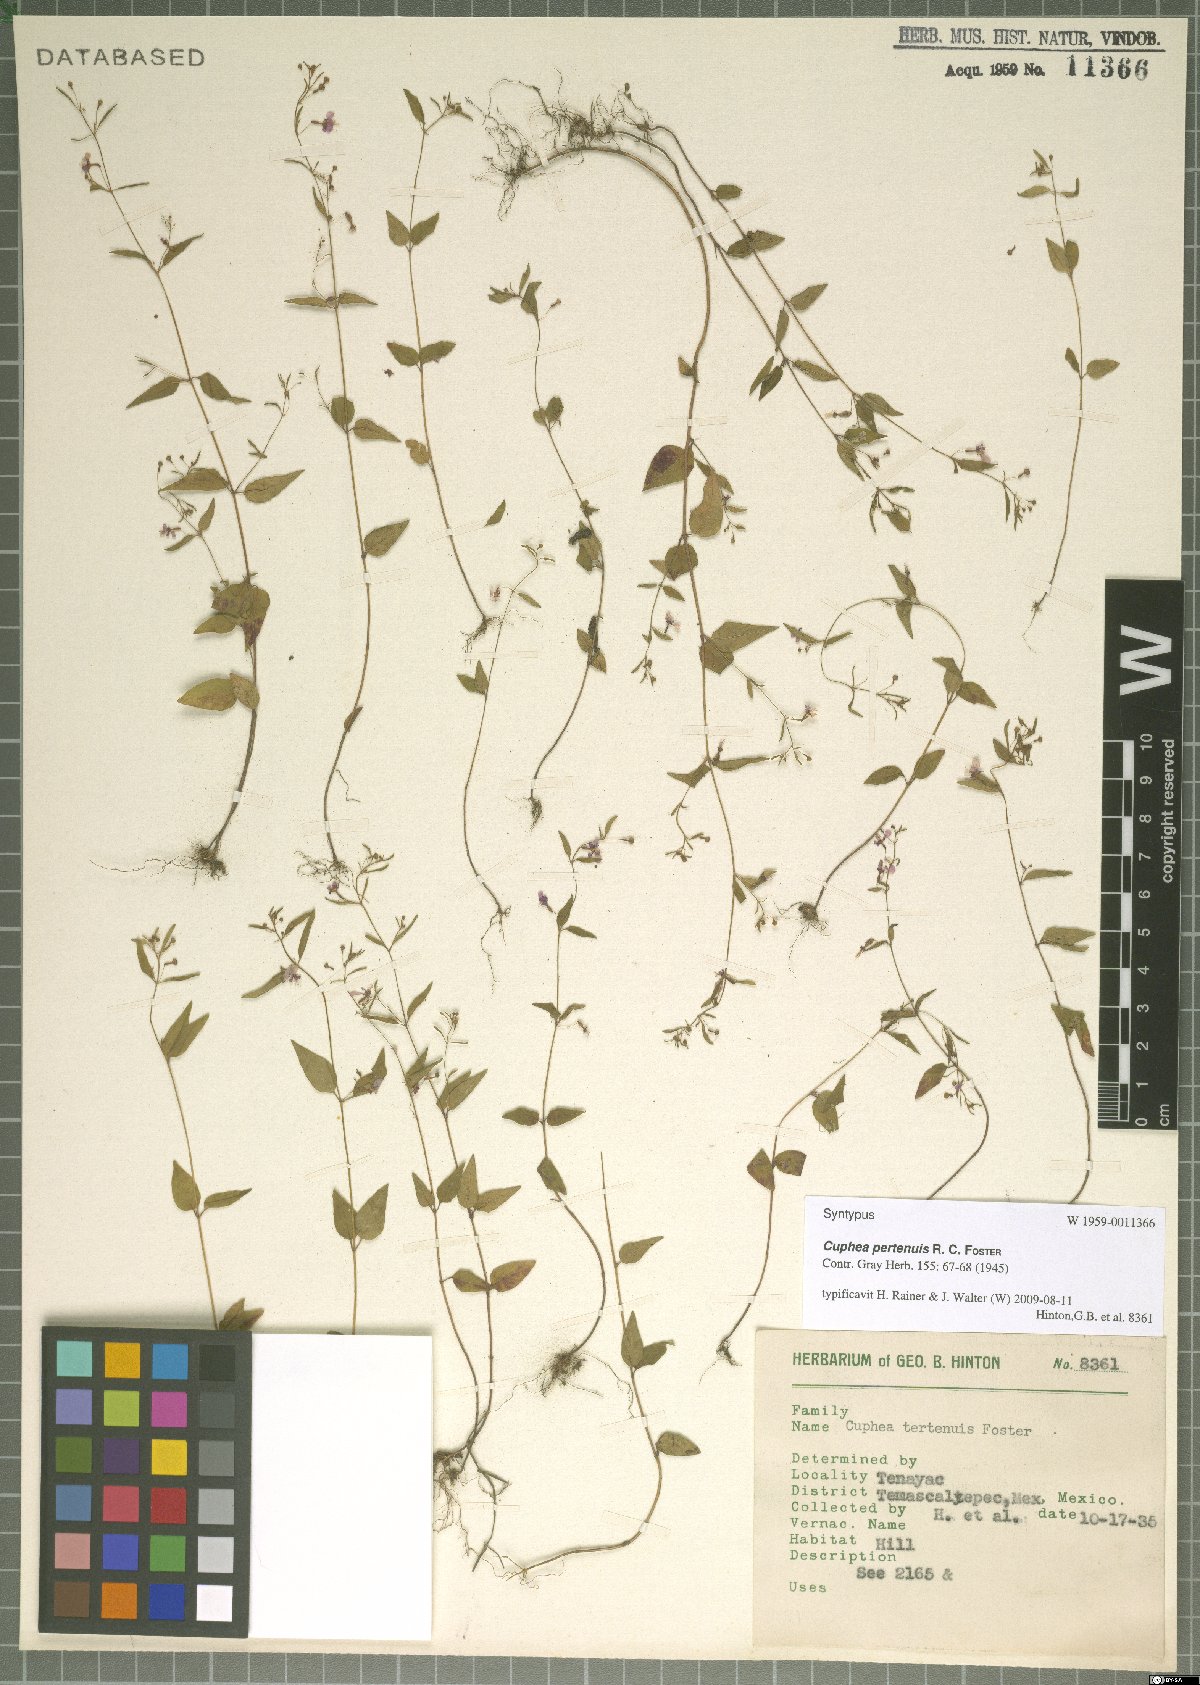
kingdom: Plantae
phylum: Tracheophyta
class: Magnoliopsida
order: Myrtales
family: Lythraceae
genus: Cuphea
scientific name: Cuphea pertenuis
